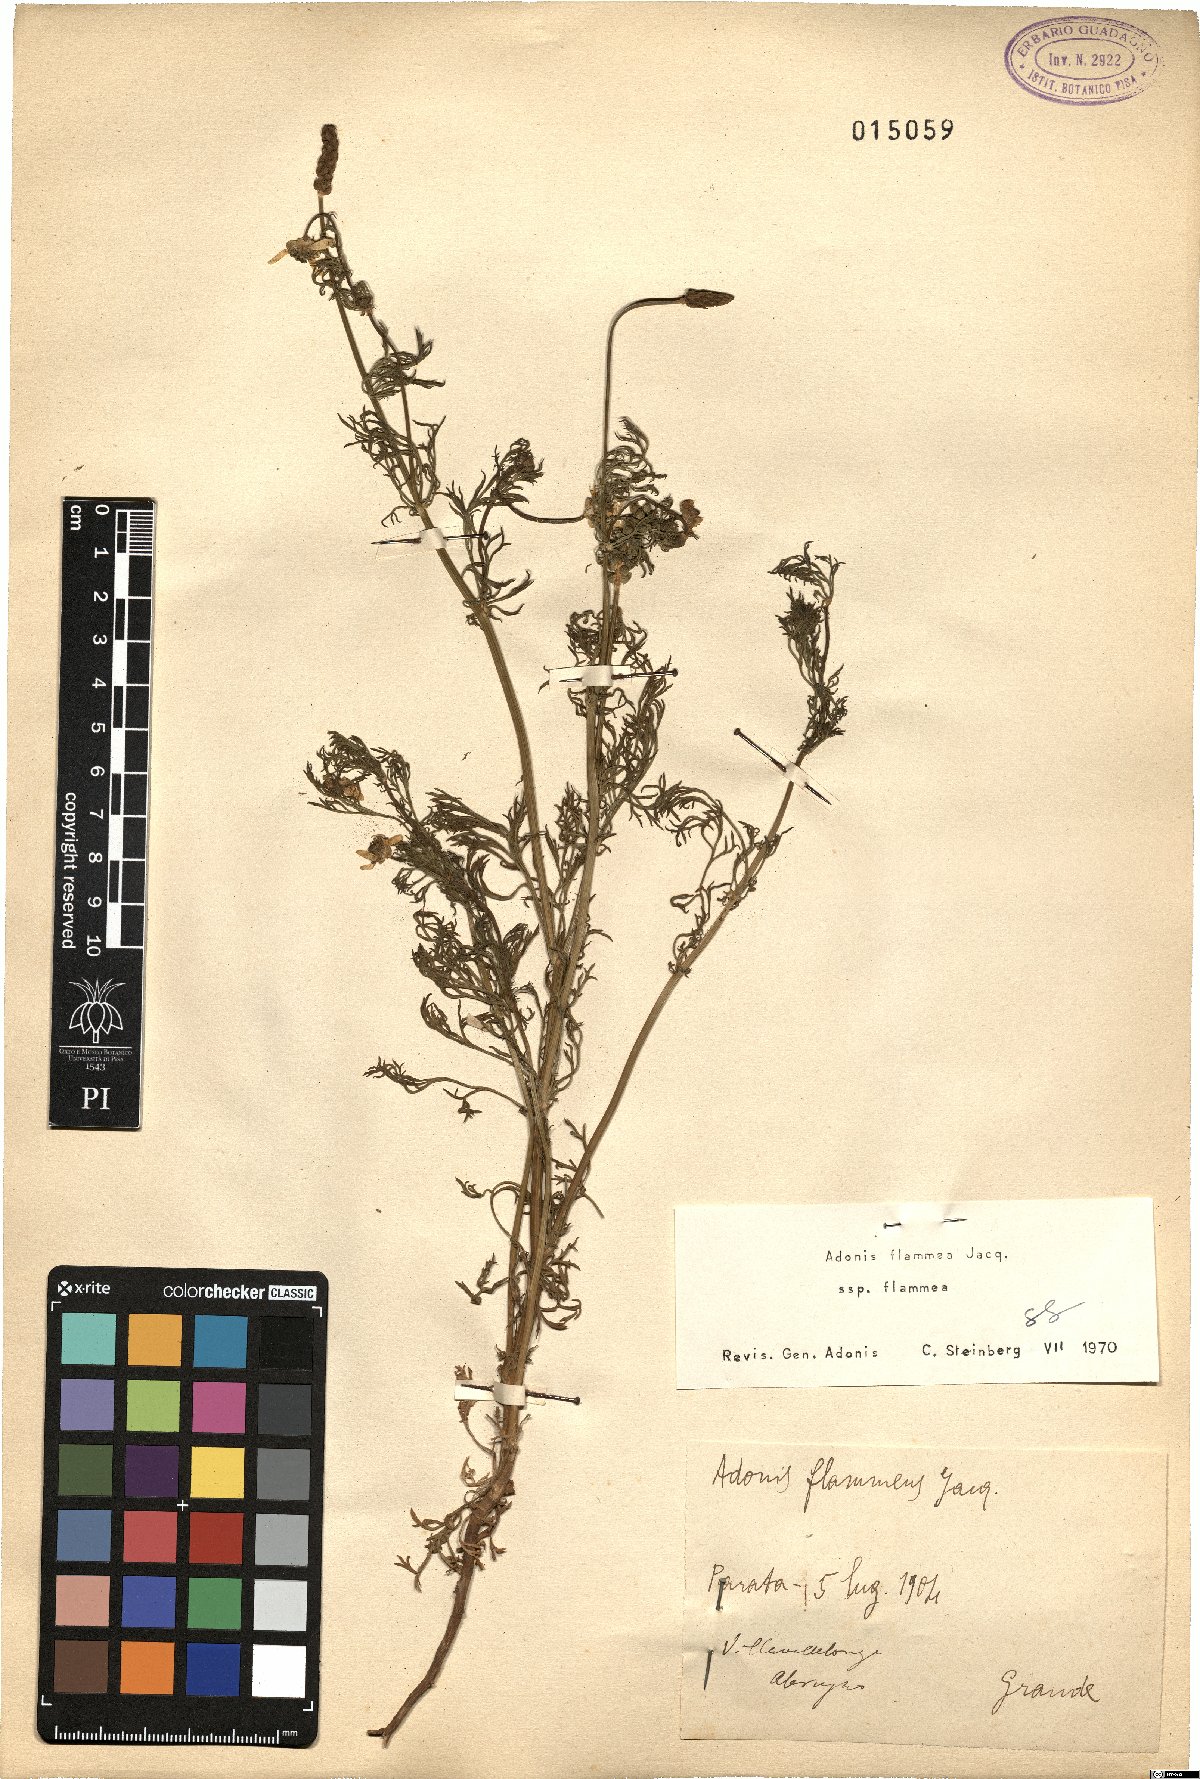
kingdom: Plantae
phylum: Tracheophyta
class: Magnoliopsida
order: Ranunculales
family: Ranunculaceae
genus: Adonis
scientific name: Adonis flammea
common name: Large pheasant's-eye
